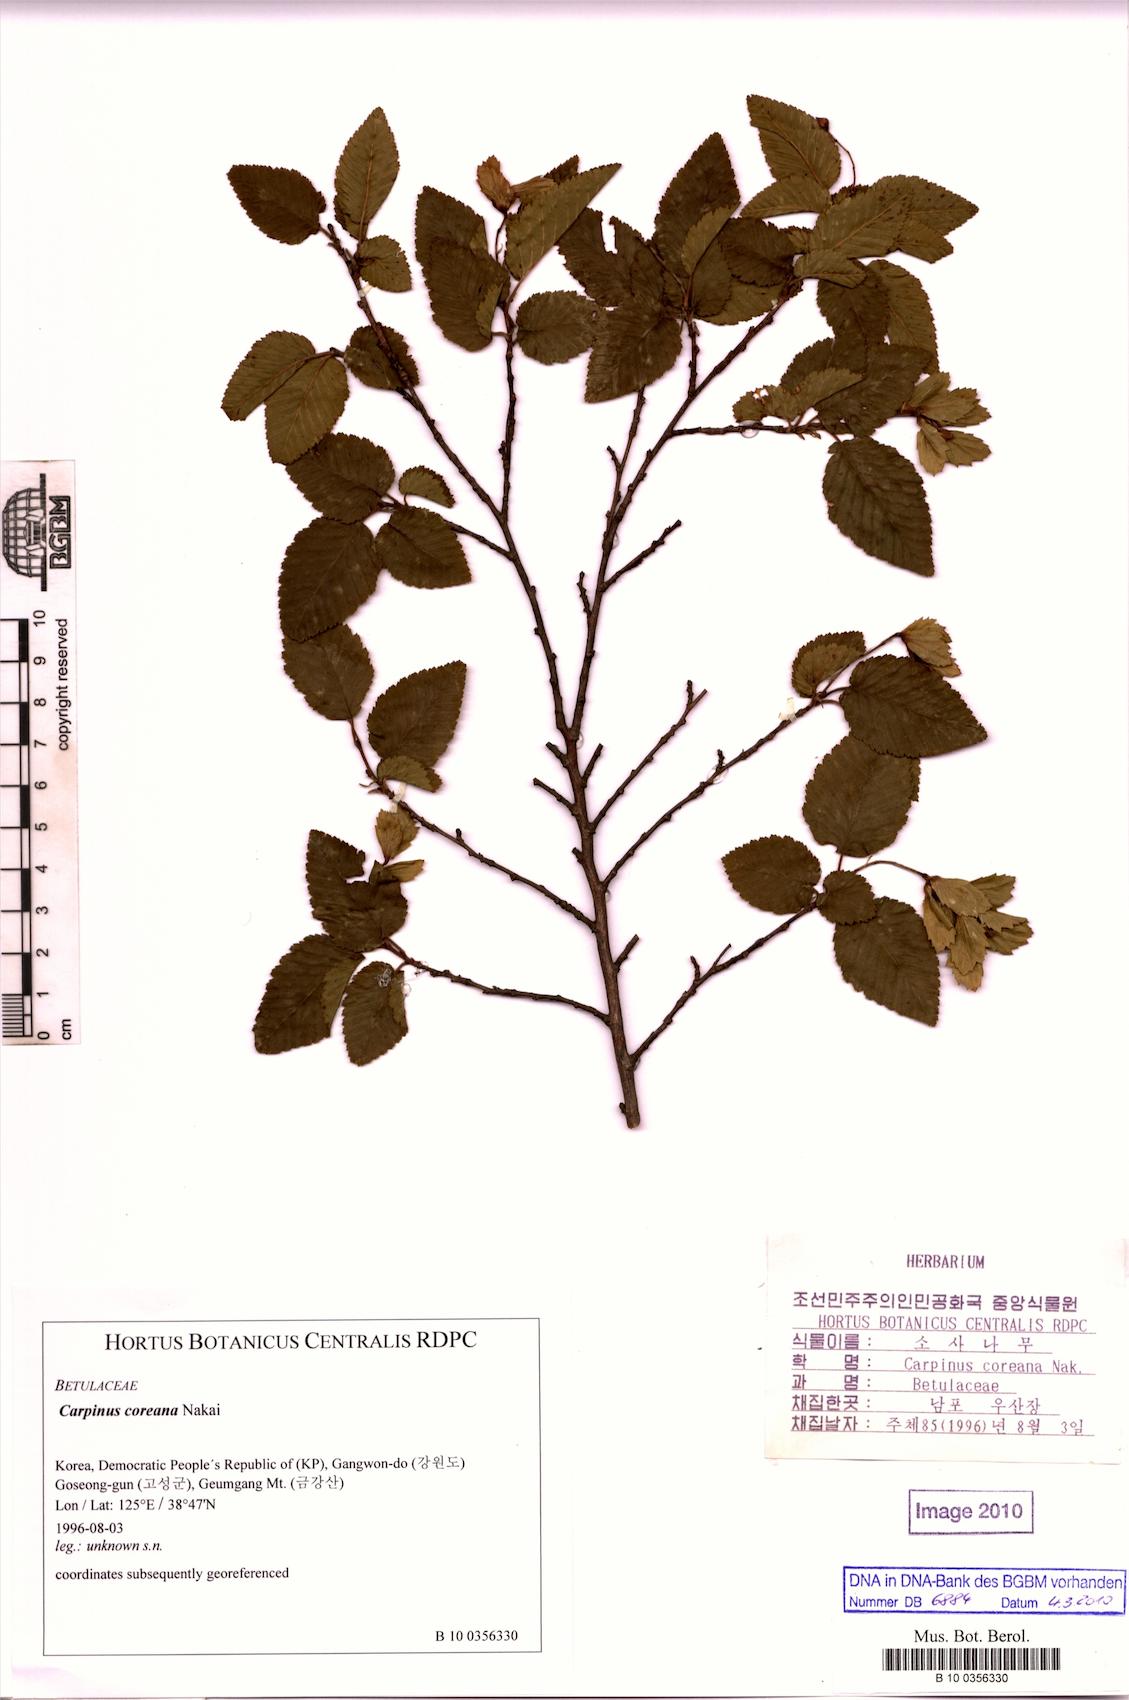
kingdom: Plantae
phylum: Tracheophyta
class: Magnoliopsida
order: Fagales
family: Betulaceae
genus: Carpinus
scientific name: Carpinus turczaninovii
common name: Korean hornbeam
